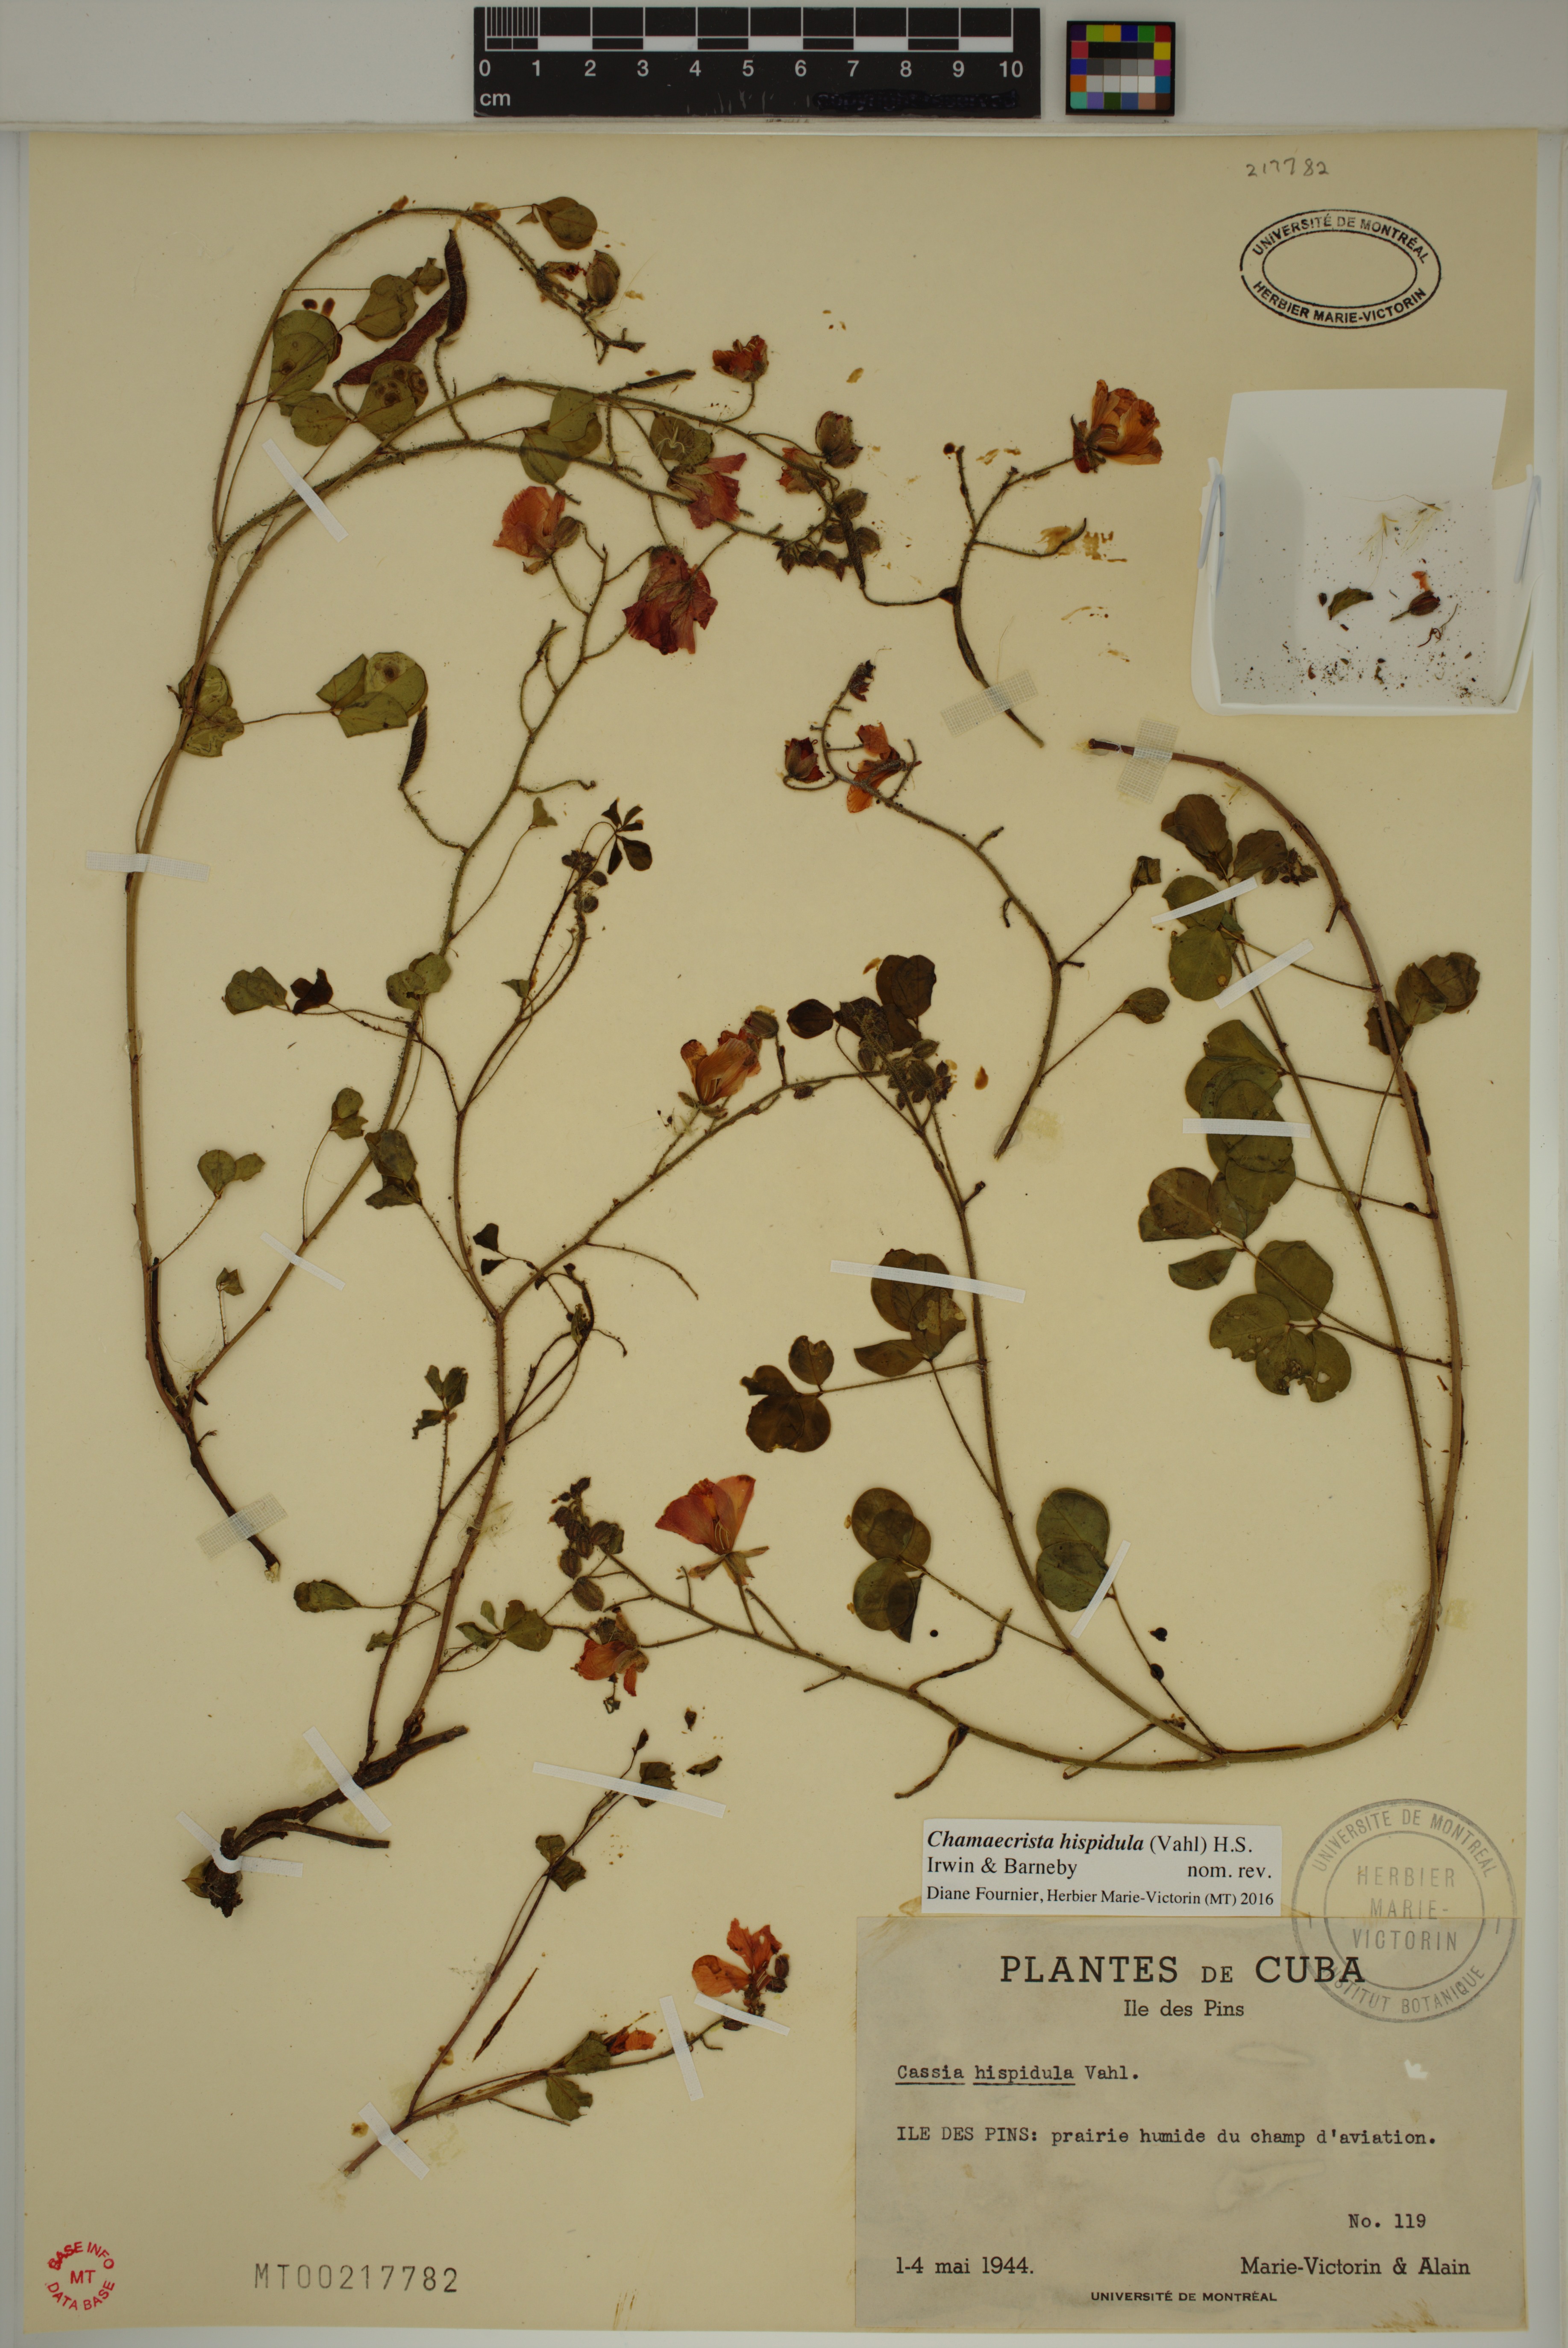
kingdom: Plantae
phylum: Tracheophyta
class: Magnoliopsida
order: Fabales
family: Fabaceae
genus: Chamaecrista
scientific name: Chamaecrista hispidula
